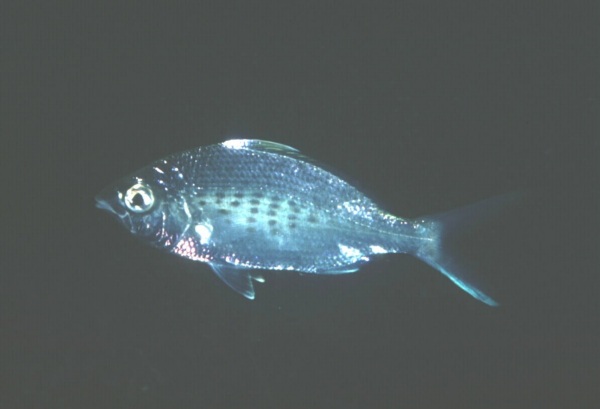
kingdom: Animalia
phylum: Chordata
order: Perciformes
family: Gerreidae
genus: Gerres
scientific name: Gerres oyena
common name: Common silver-biddy
